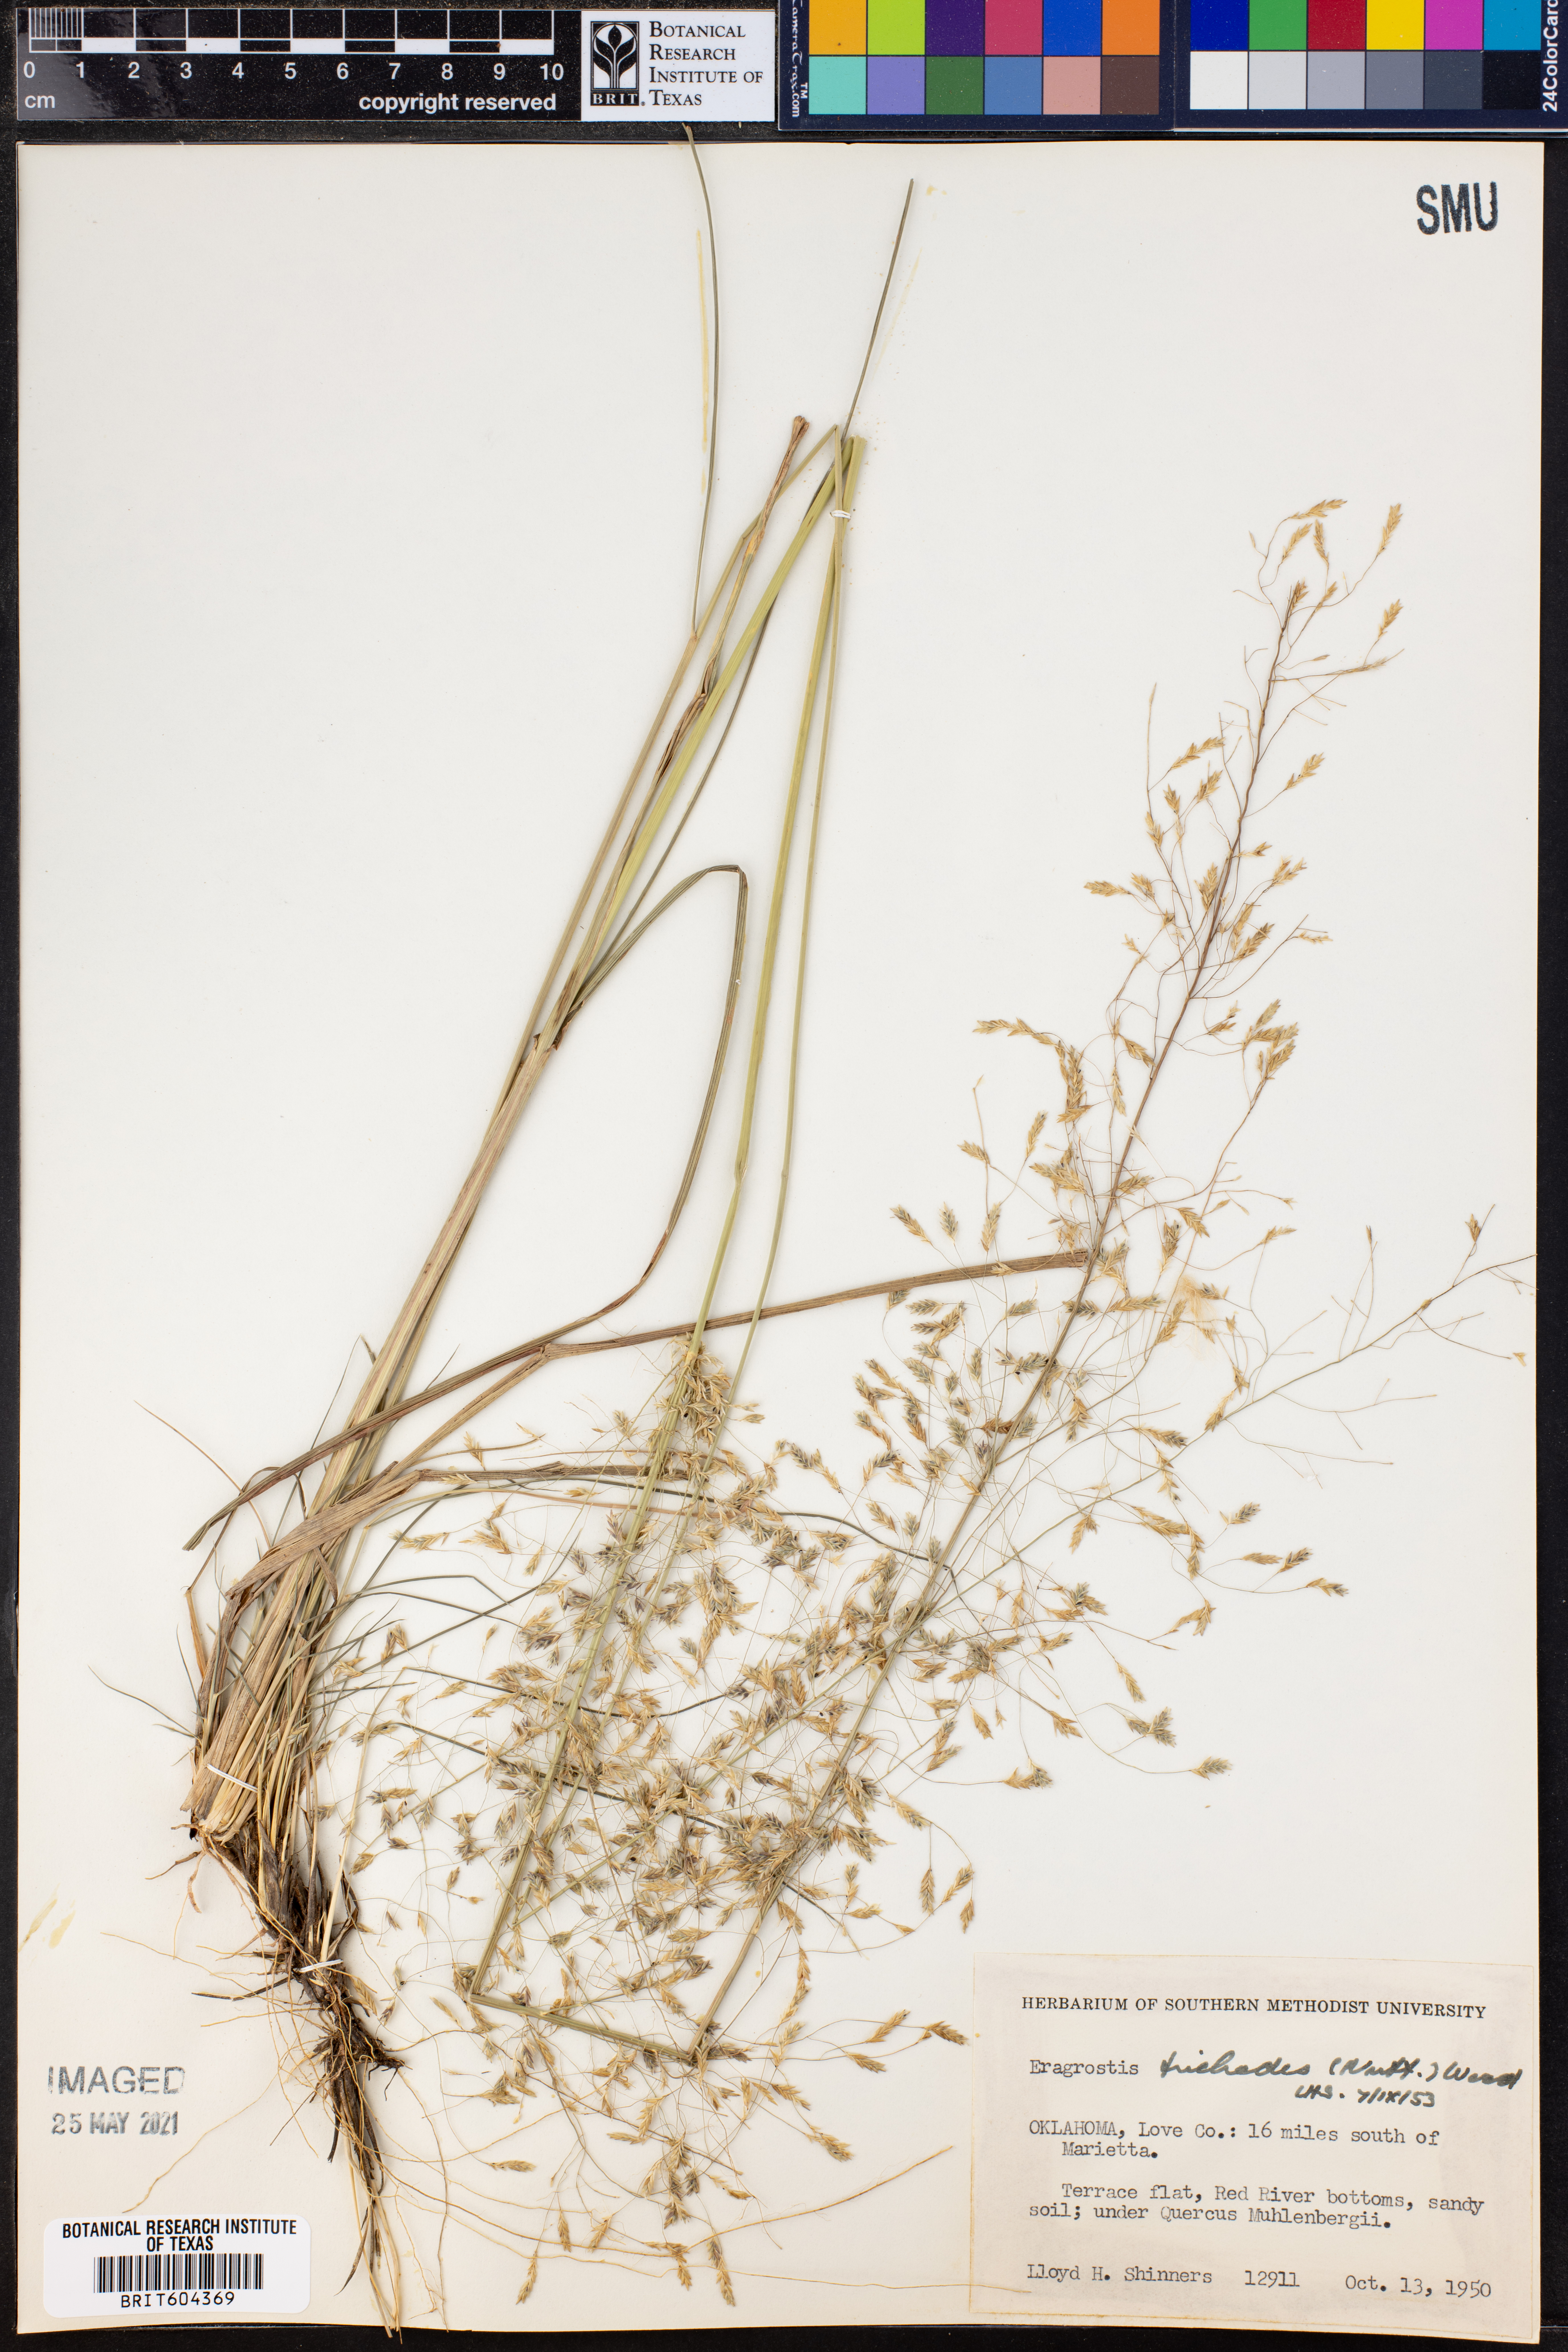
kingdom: Plantae
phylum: Tracheophyta
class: Liliopsida
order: Poales
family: Poaceae
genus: Eragrostis
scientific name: Eragrostis trichodes
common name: Sand love grass
